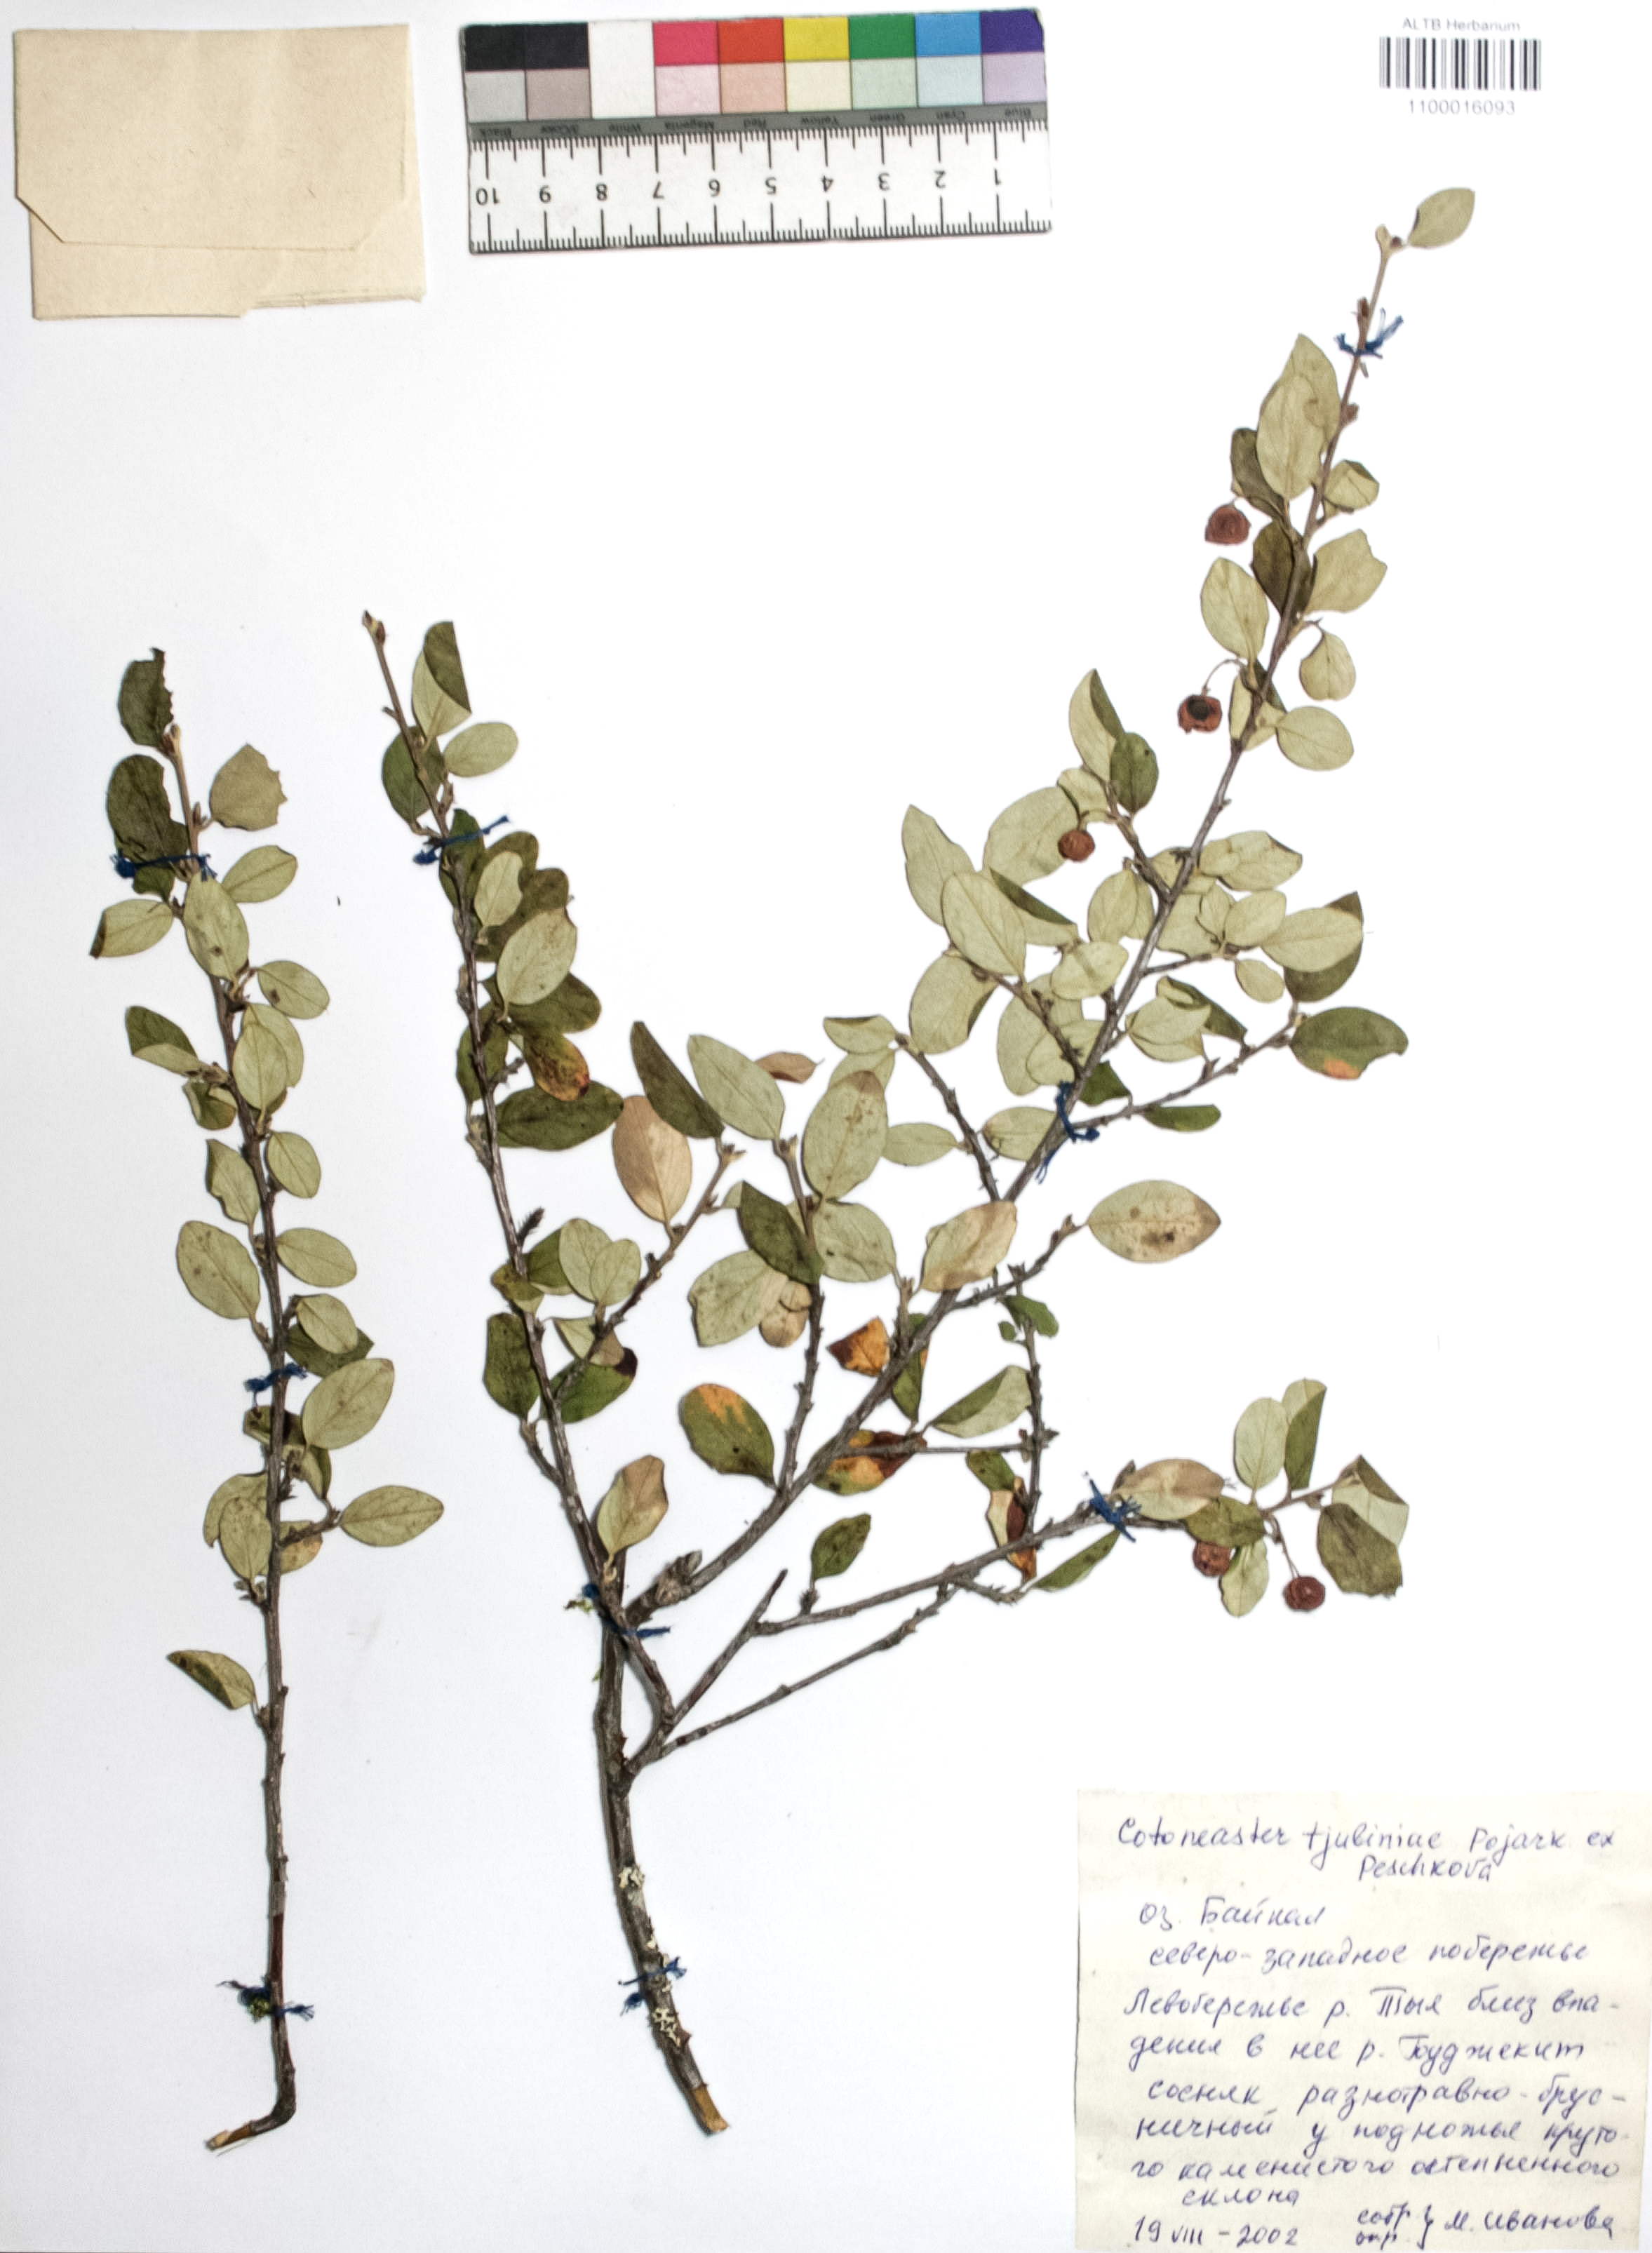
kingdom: Plantae
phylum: Tracheophyta
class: Magnoliopsida
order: Rosales
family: Rosaceae
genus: Cotoneaster
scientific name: Cotoneaster tjuliniae
